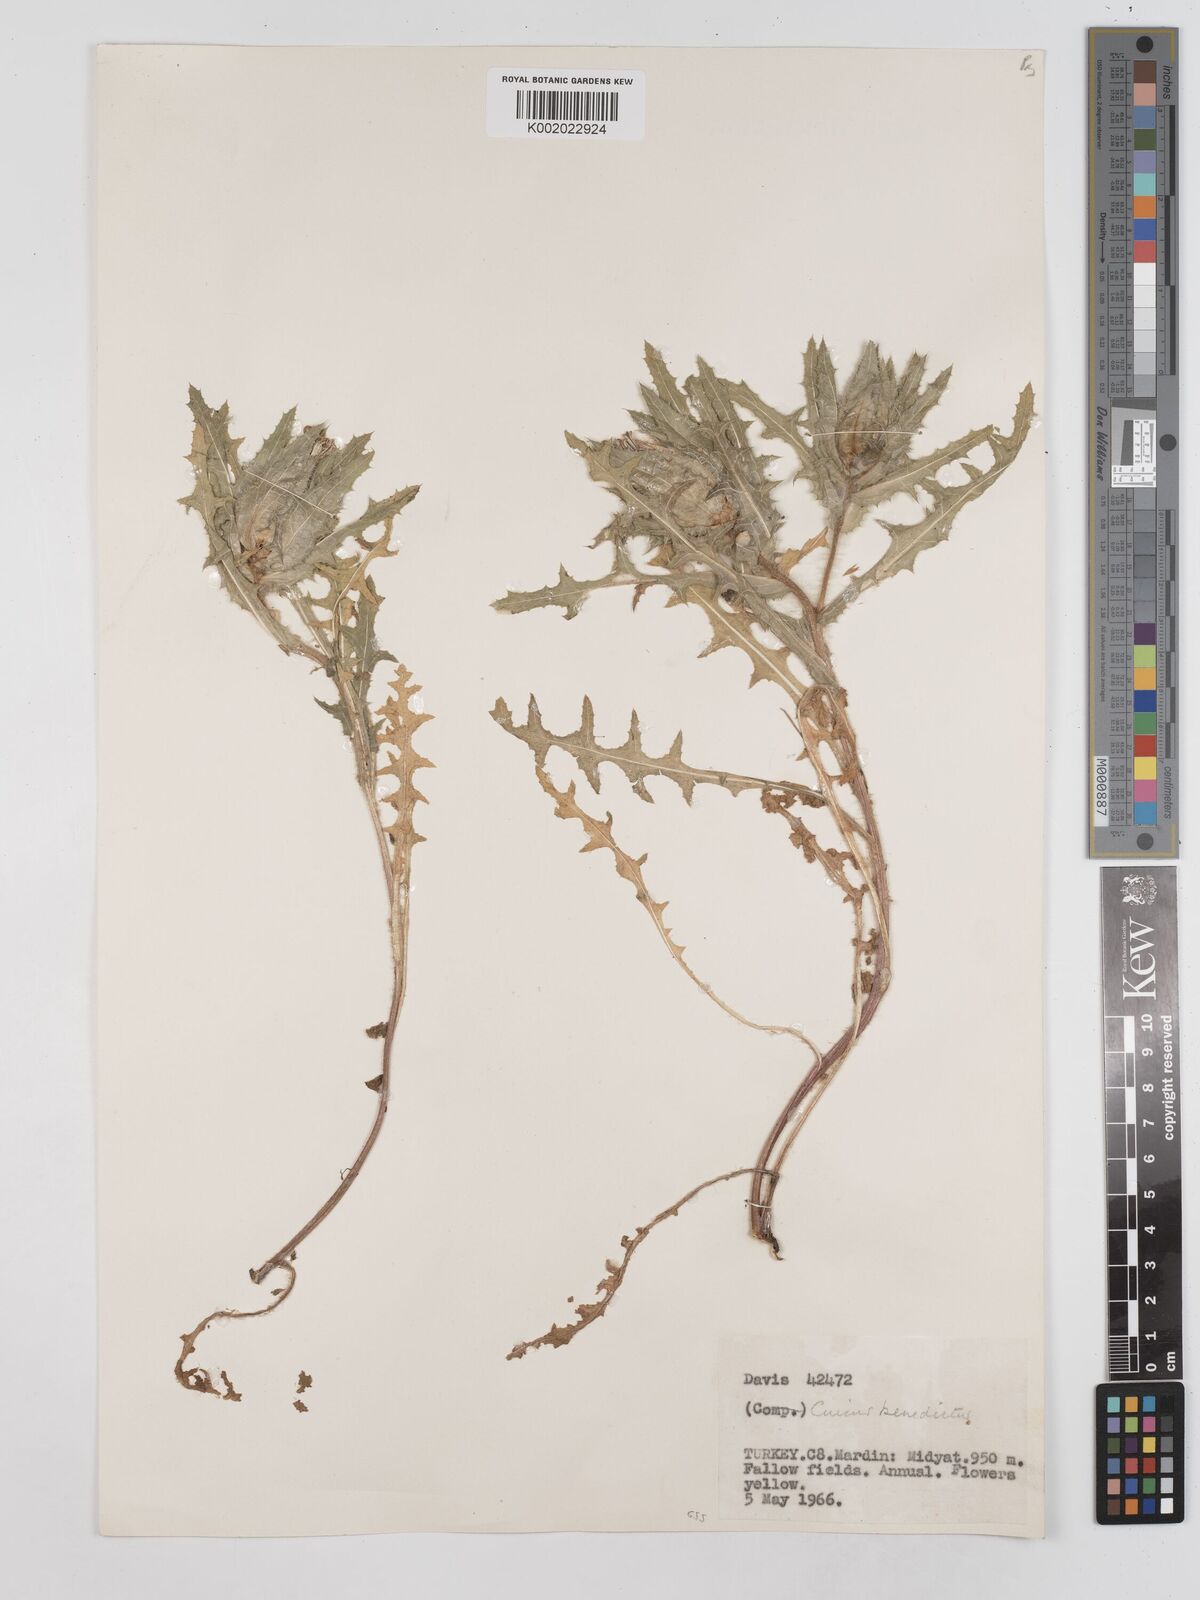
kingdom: Plantae
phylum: Tracheophyta
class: Magnoliopsida
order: Asterales
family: Asteraceae
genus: Centaurea
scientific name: Centaurea benedicta
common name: Blessed thistle
